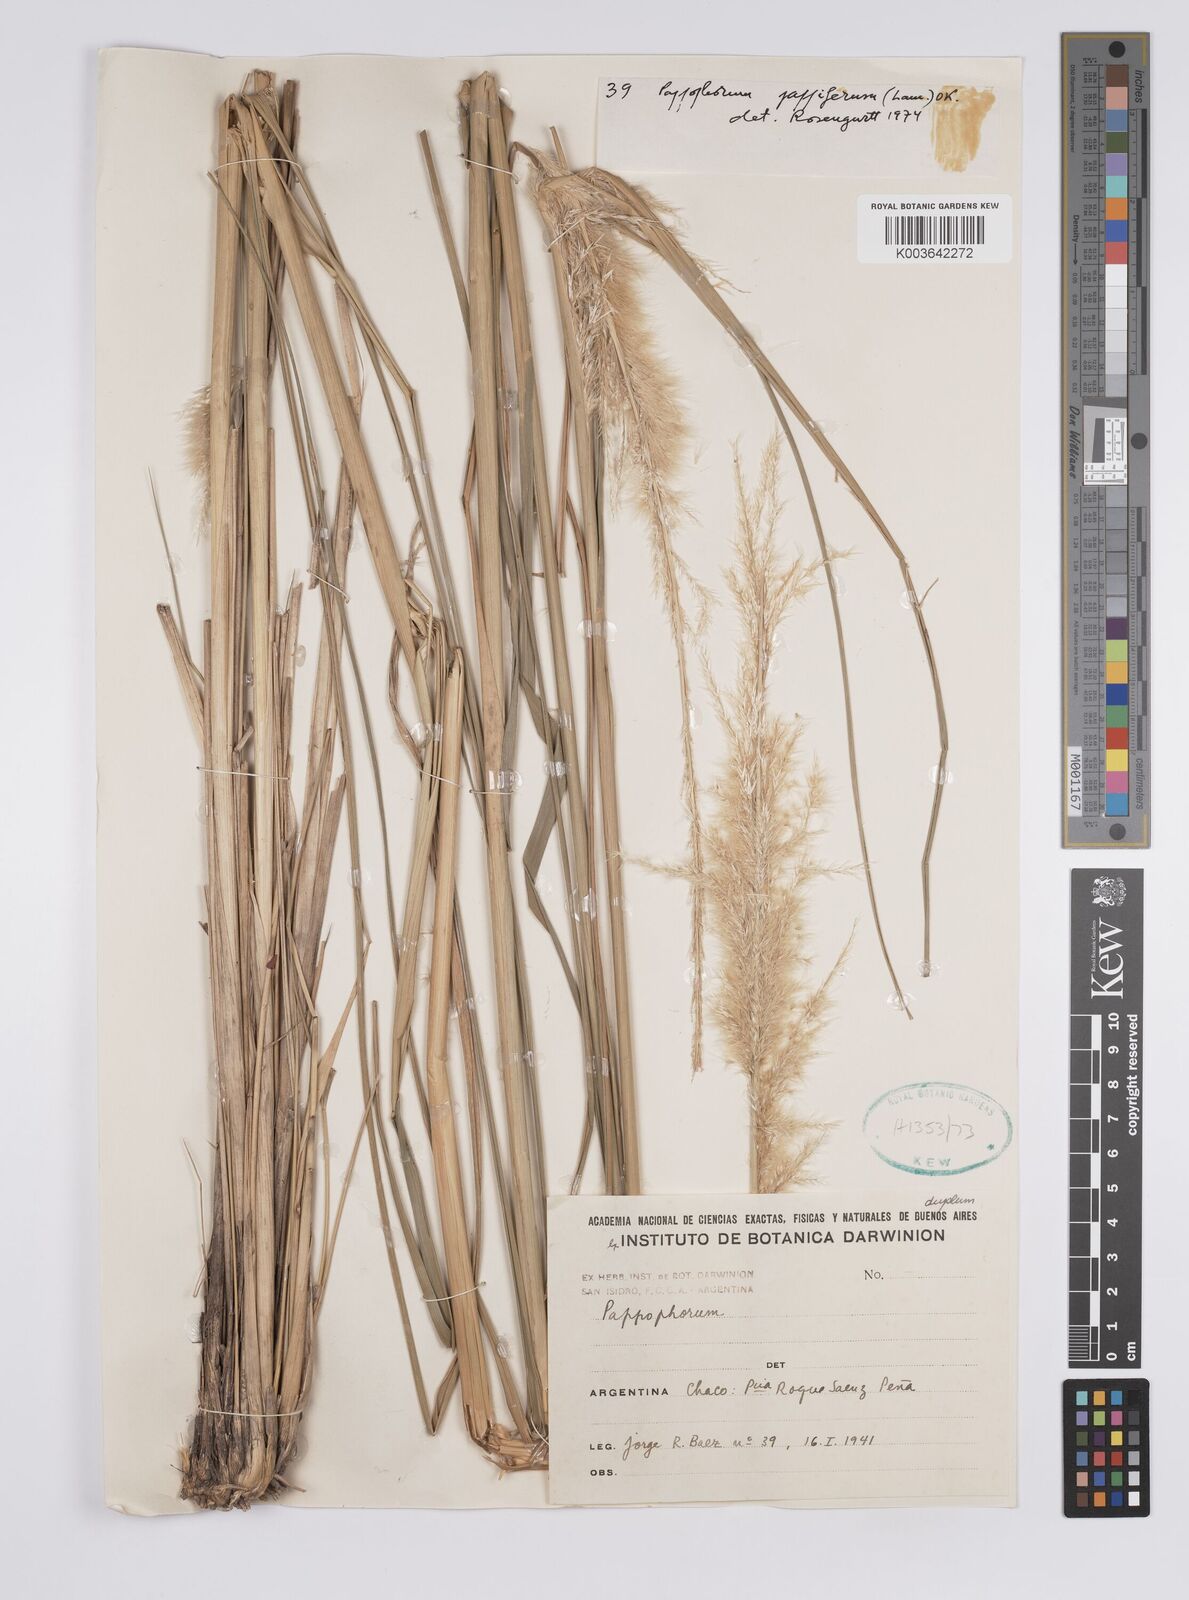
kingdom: Plantae
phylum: Tracheophyta
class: Liliopsida
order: Poales
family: Poaceae
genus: Pappophorum
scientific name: Pappophorum pappiferum
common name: Crabgrass
